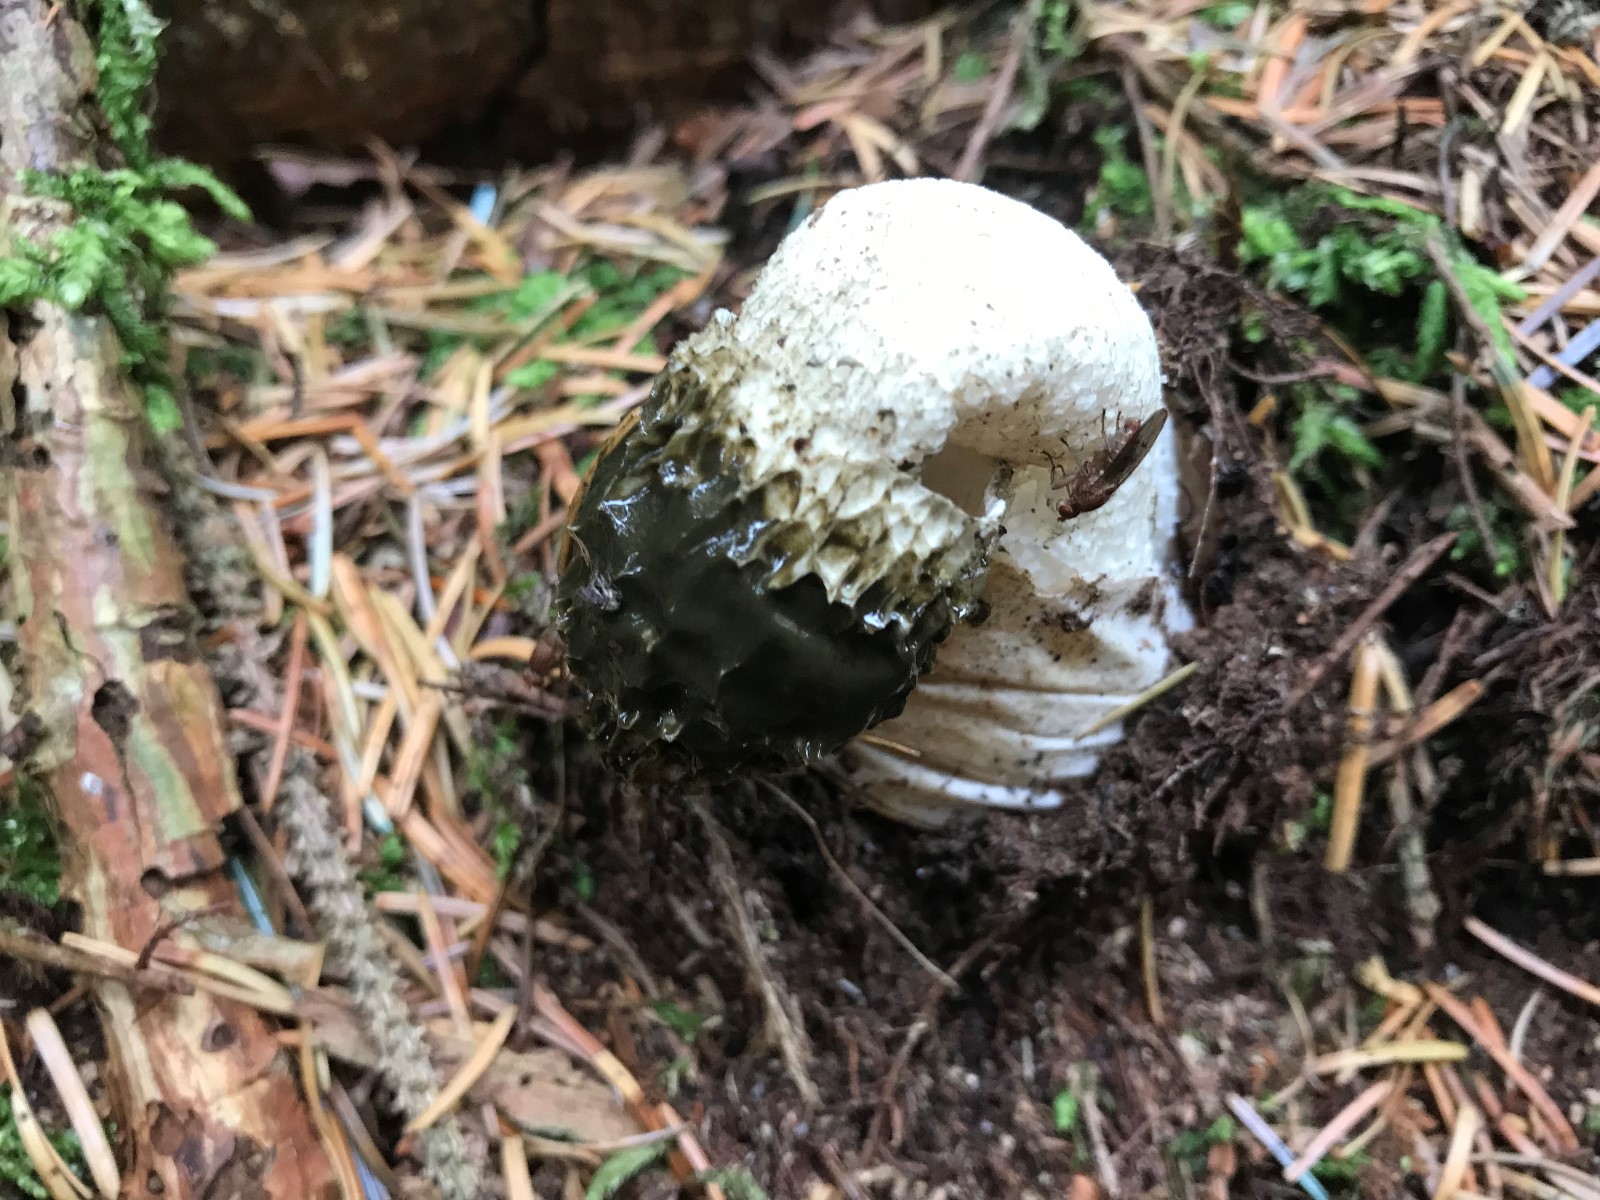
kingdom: Fungi
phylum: Basidiomycota
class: Agaricomycetes
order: Phallales
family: Phallaceae
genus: Phallus
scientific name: Phallus impudicus
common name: almindelig stinksvamp
